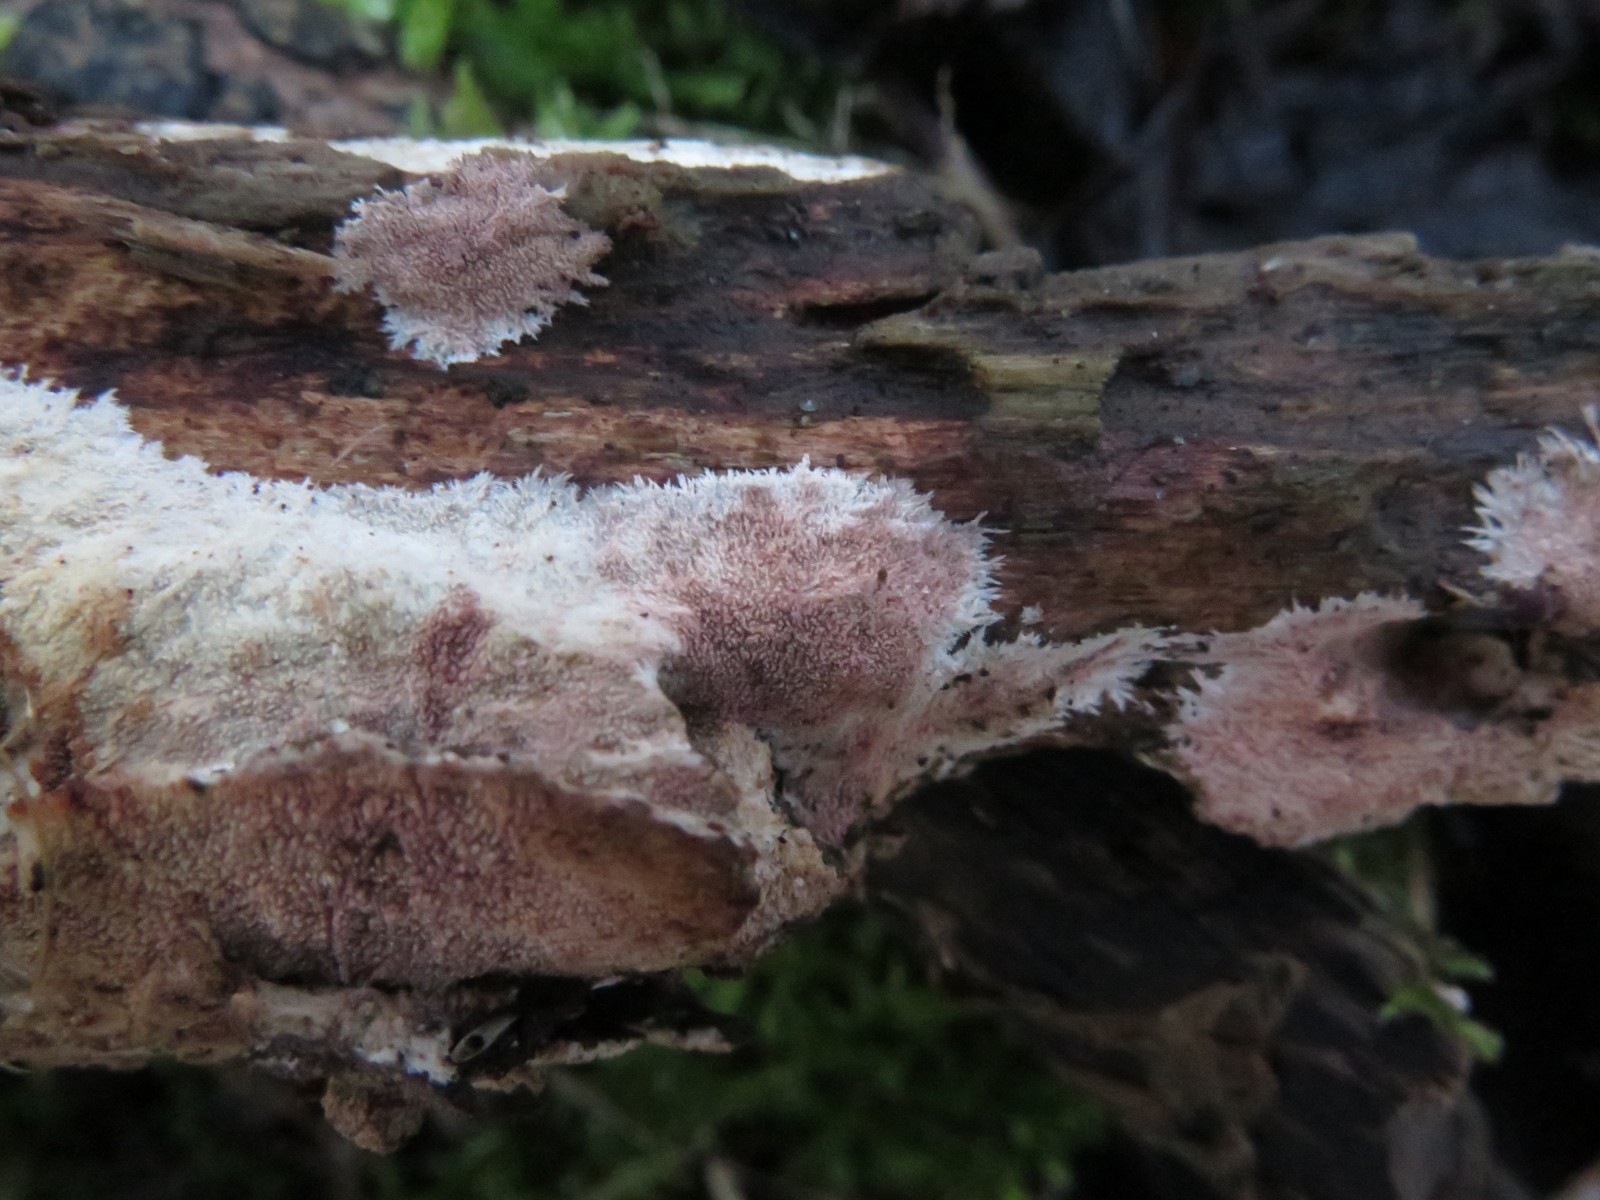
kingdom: Fungi
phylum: Basidiomycota
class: Agaricomycetes
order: Polyporales
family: Steccherinaceae
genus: Steccherinum
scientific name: Steccherinum fimbriatum
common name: trådet skønpig
